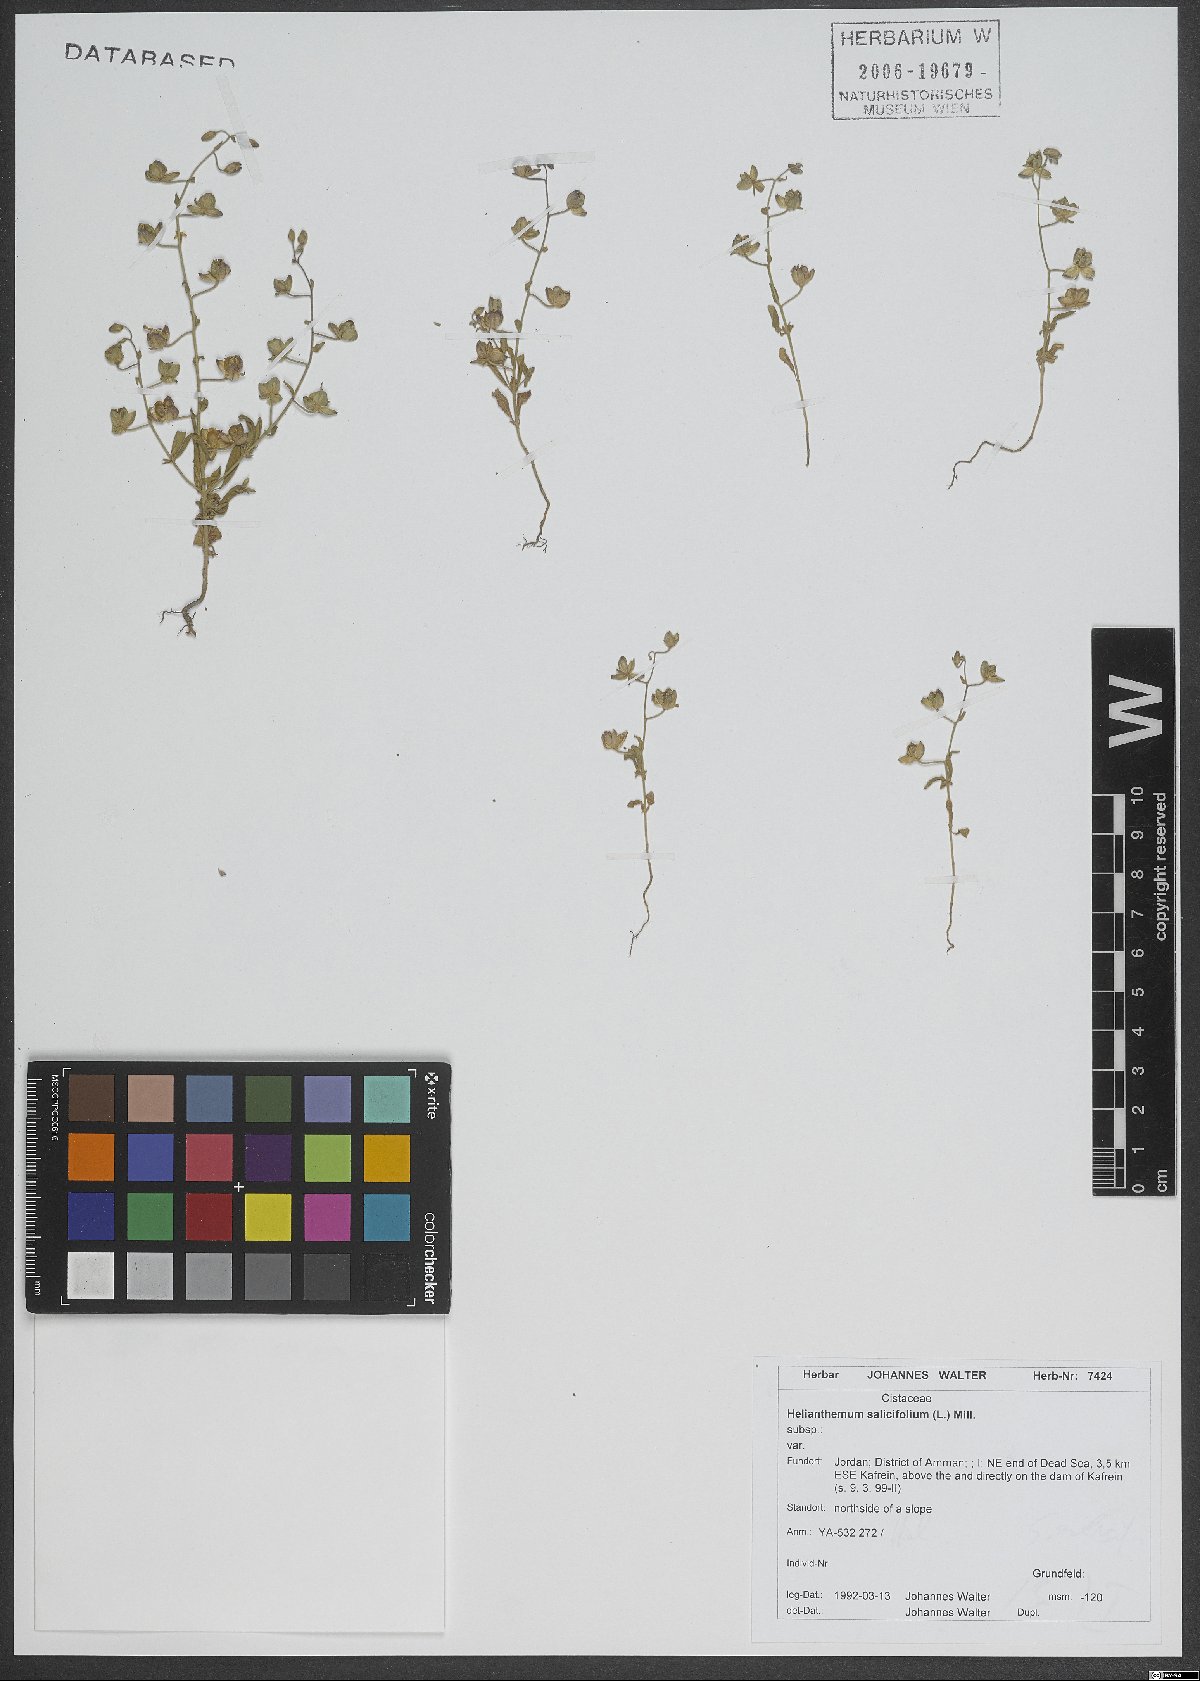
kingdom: Plantae
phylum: Tracheophyta
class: Magnoliopsida
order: Malvales
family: Cistaceae
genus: Helianthemum
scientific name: Helianthemum salicifolium
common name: Willowleaf frostweed
